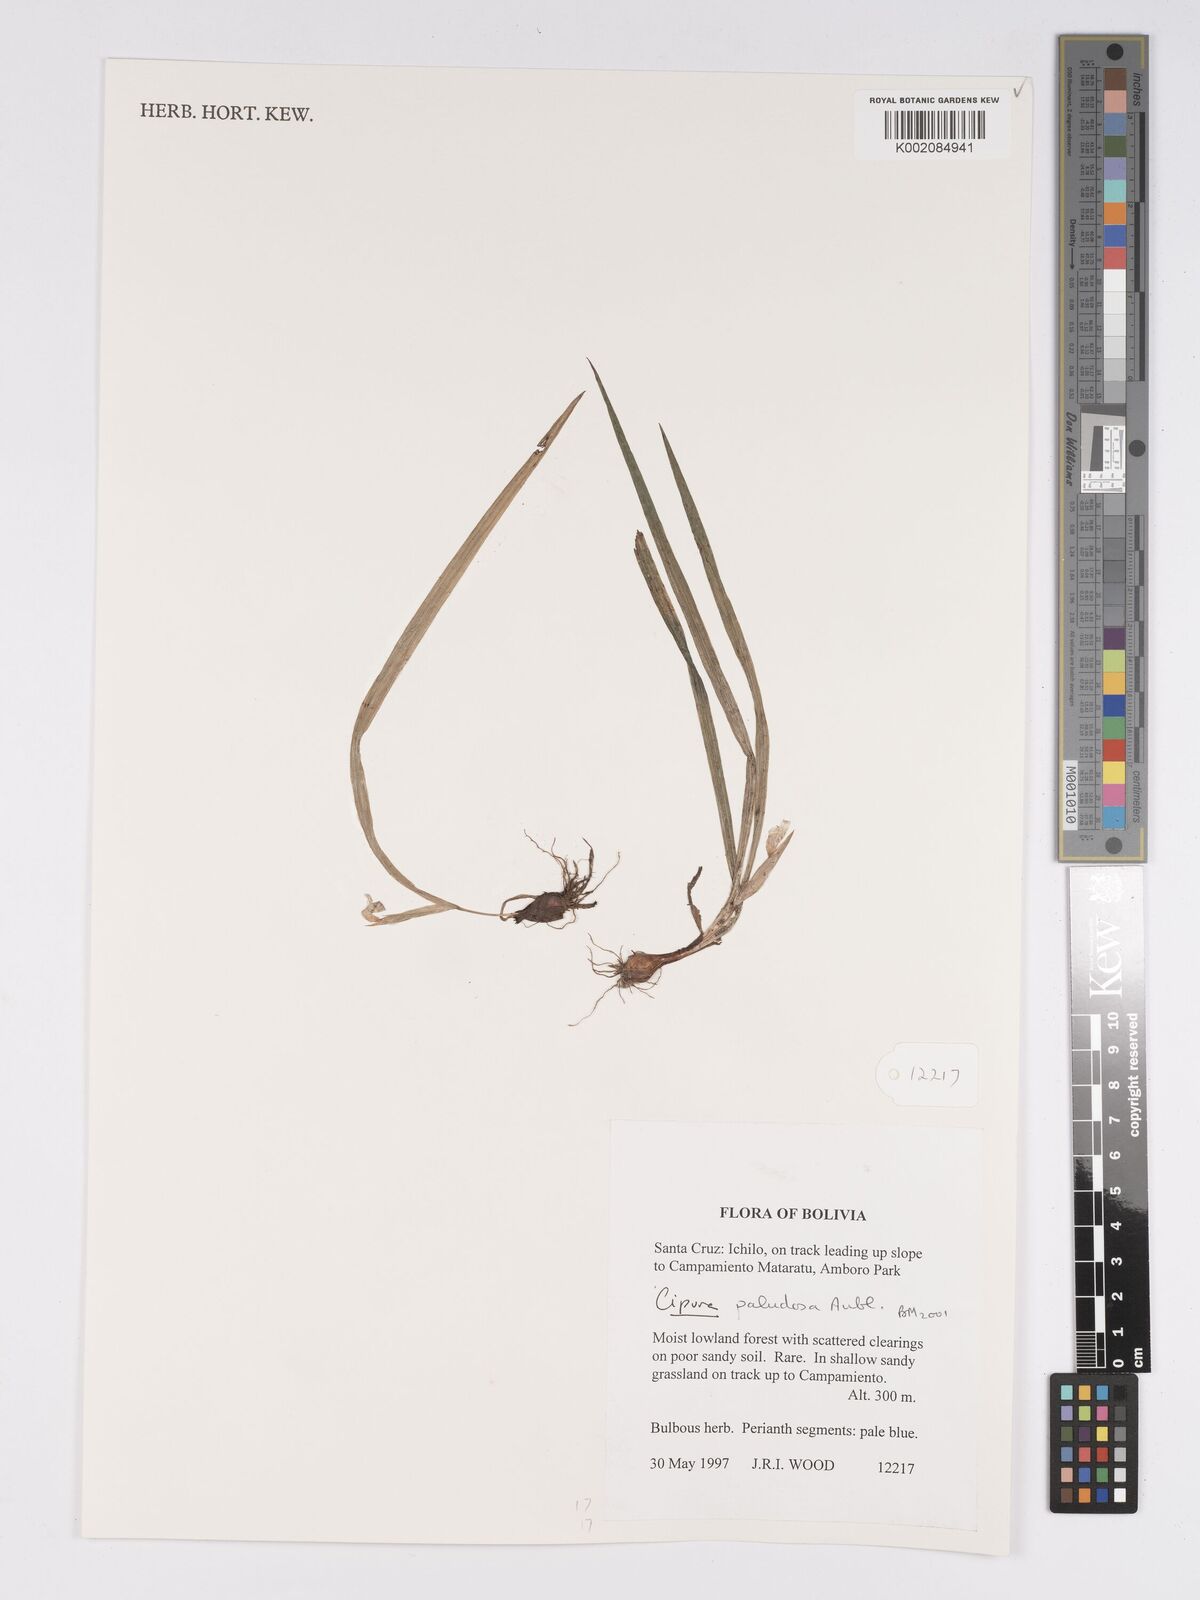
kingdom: Plantae
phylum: Tracheophyta
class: Liliopsida
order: Asparagales
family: Iridaceae
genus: Cipura
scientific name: Cipura paludosa
